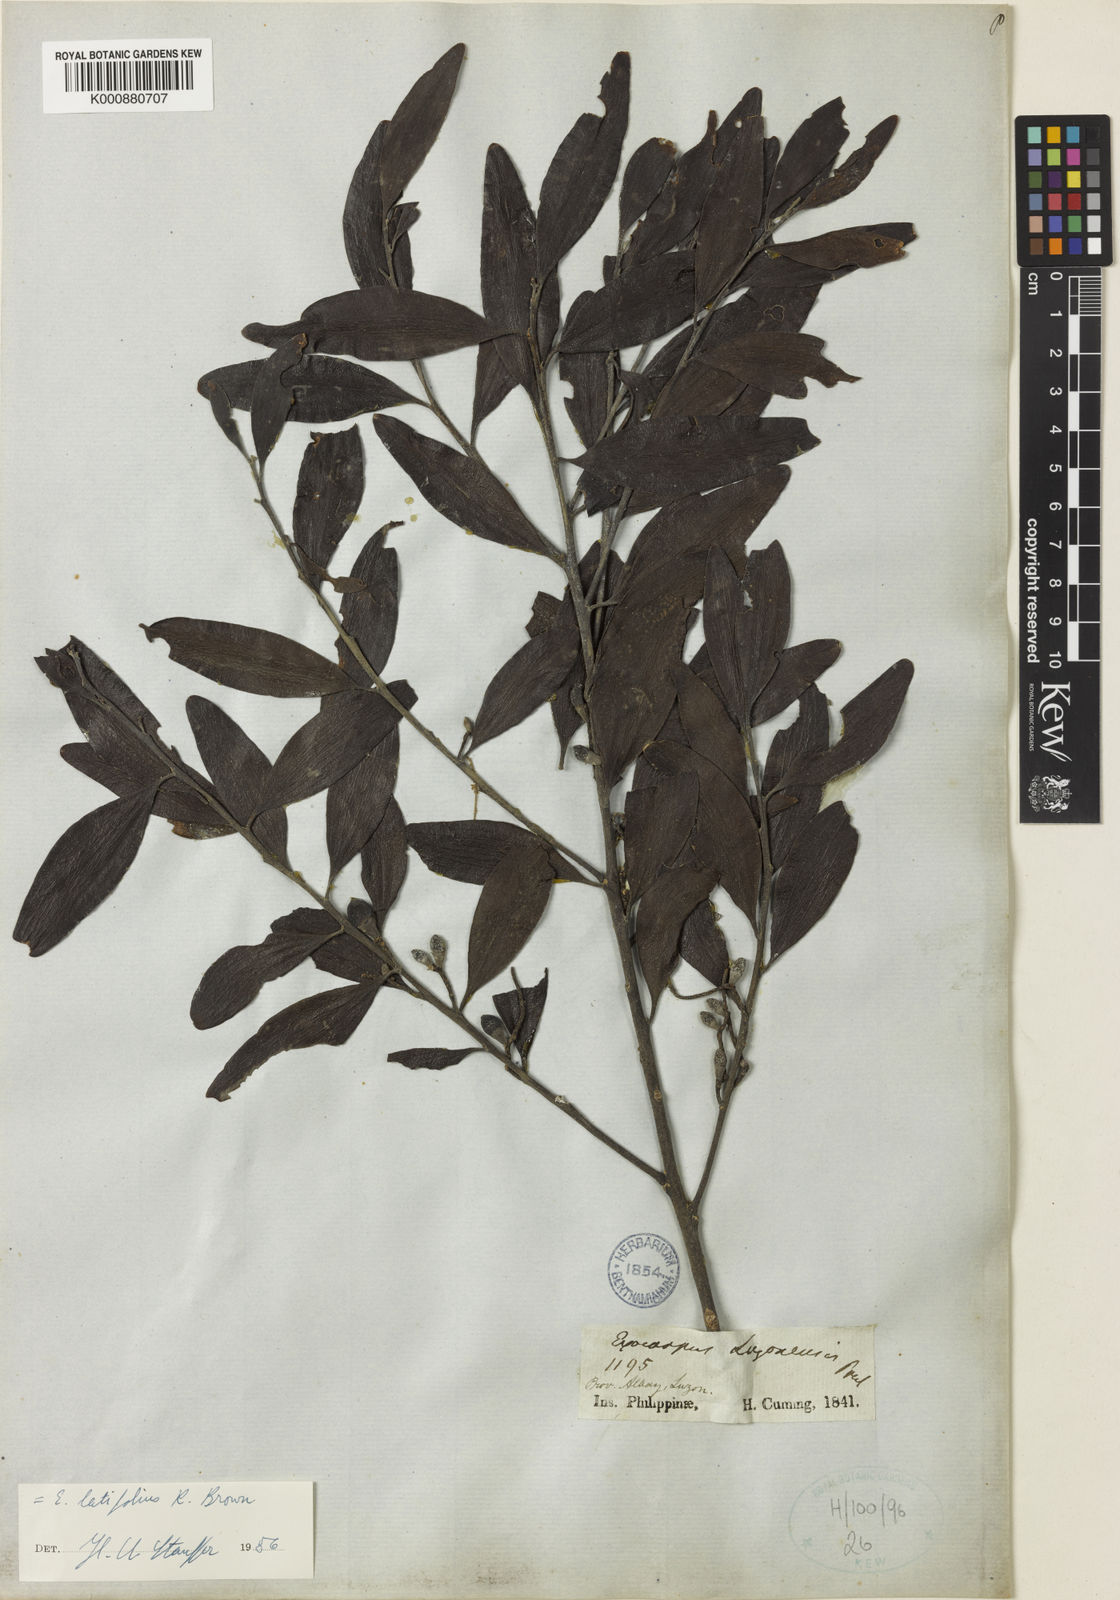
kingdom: Plantae
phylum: Tracheophyta
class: Magnoliopsida
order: Santalales
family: Santalaceae
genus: Exocarpos
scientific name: Exocarpos latifolius
